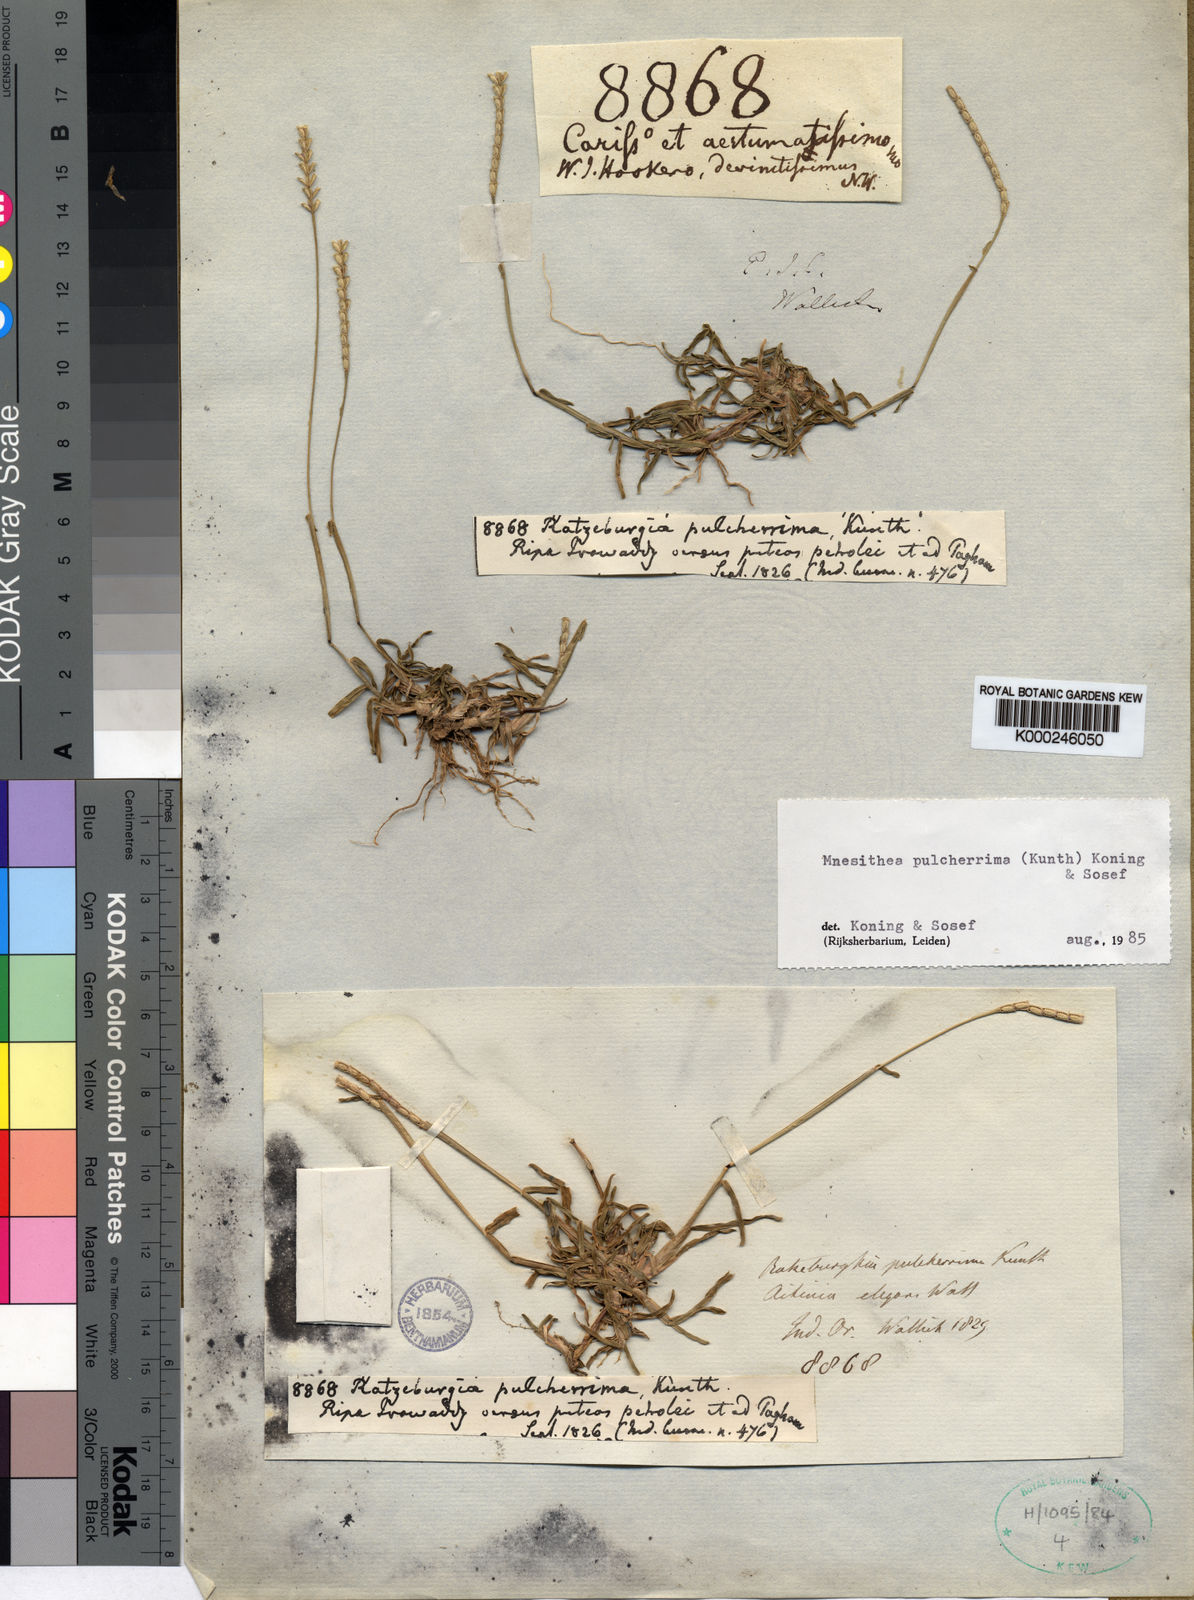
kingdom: Plantae
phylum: Tracheophyta
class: Liliopsida
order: Poales
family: Poaceae
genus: Ratzeburgia
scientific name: Ratzeburgia pulcherrima
